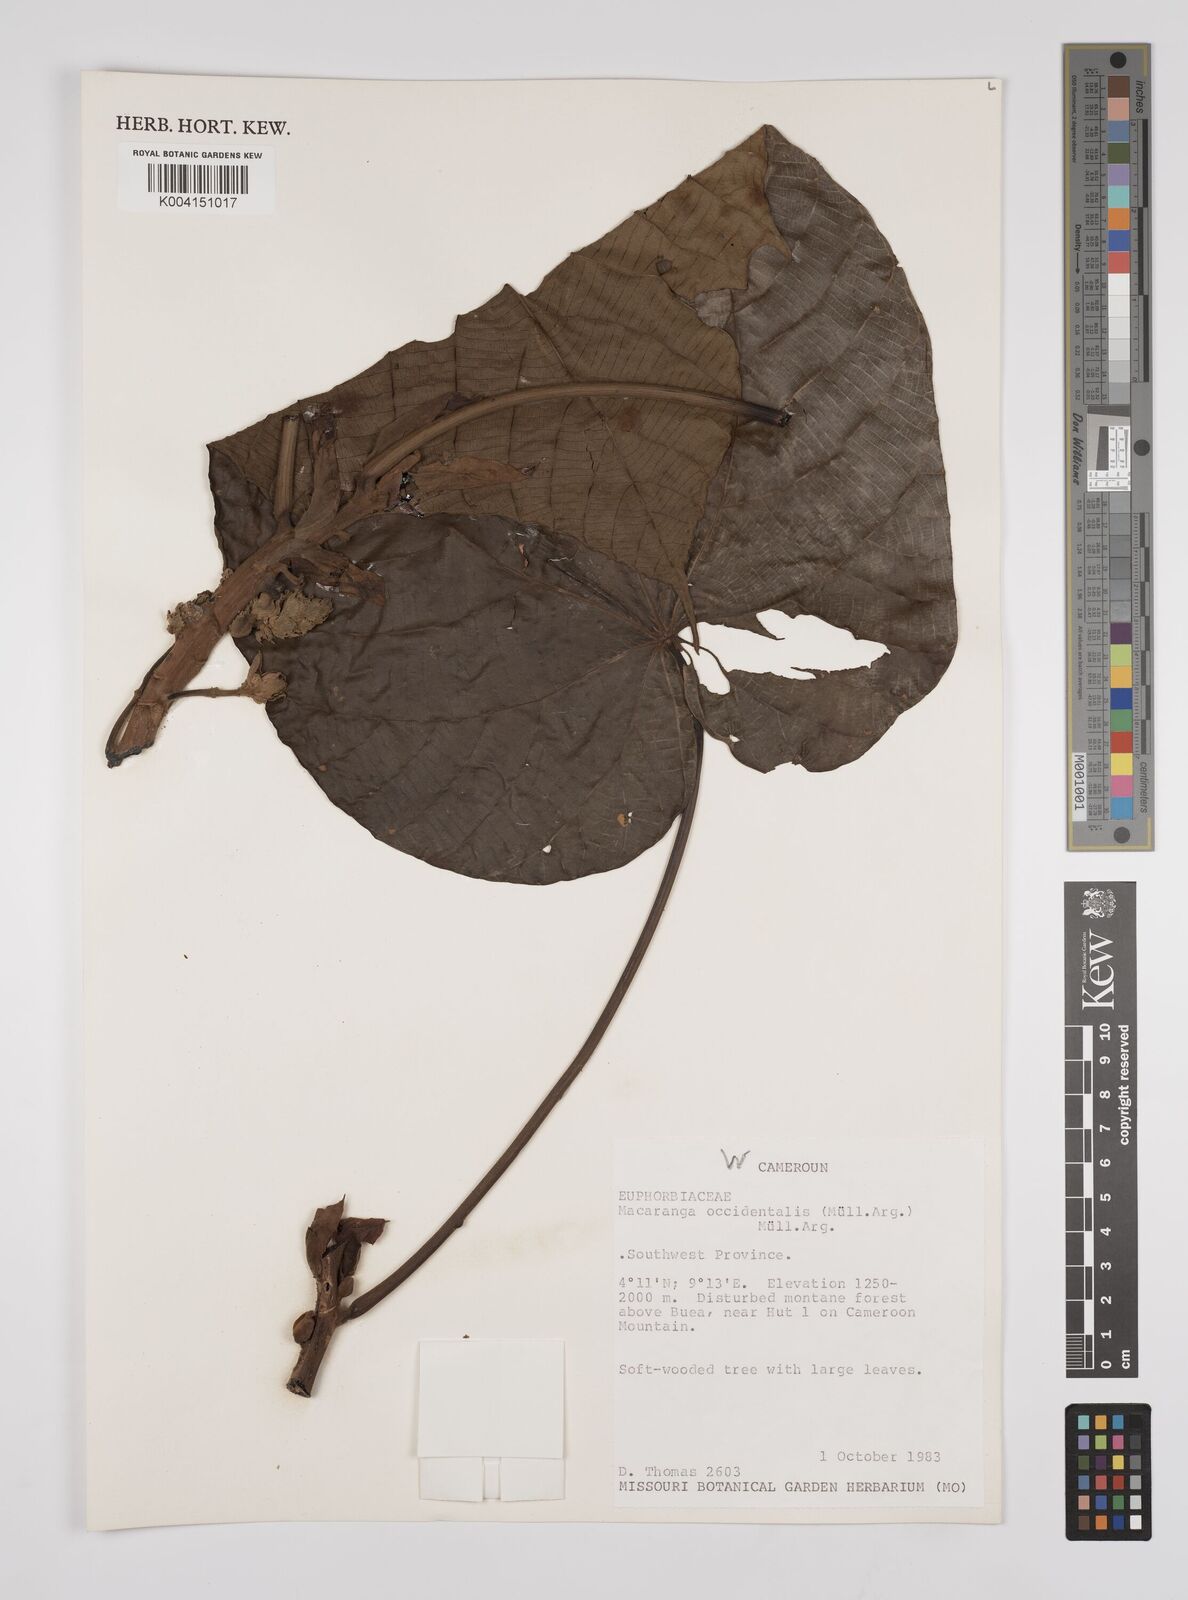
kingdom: Plantae
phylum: Tracheophyta
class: Magnoliopsida
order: Malpighiales
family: Euphorbiaceae
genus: Macaranga
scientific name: Macaranga occidentalis
